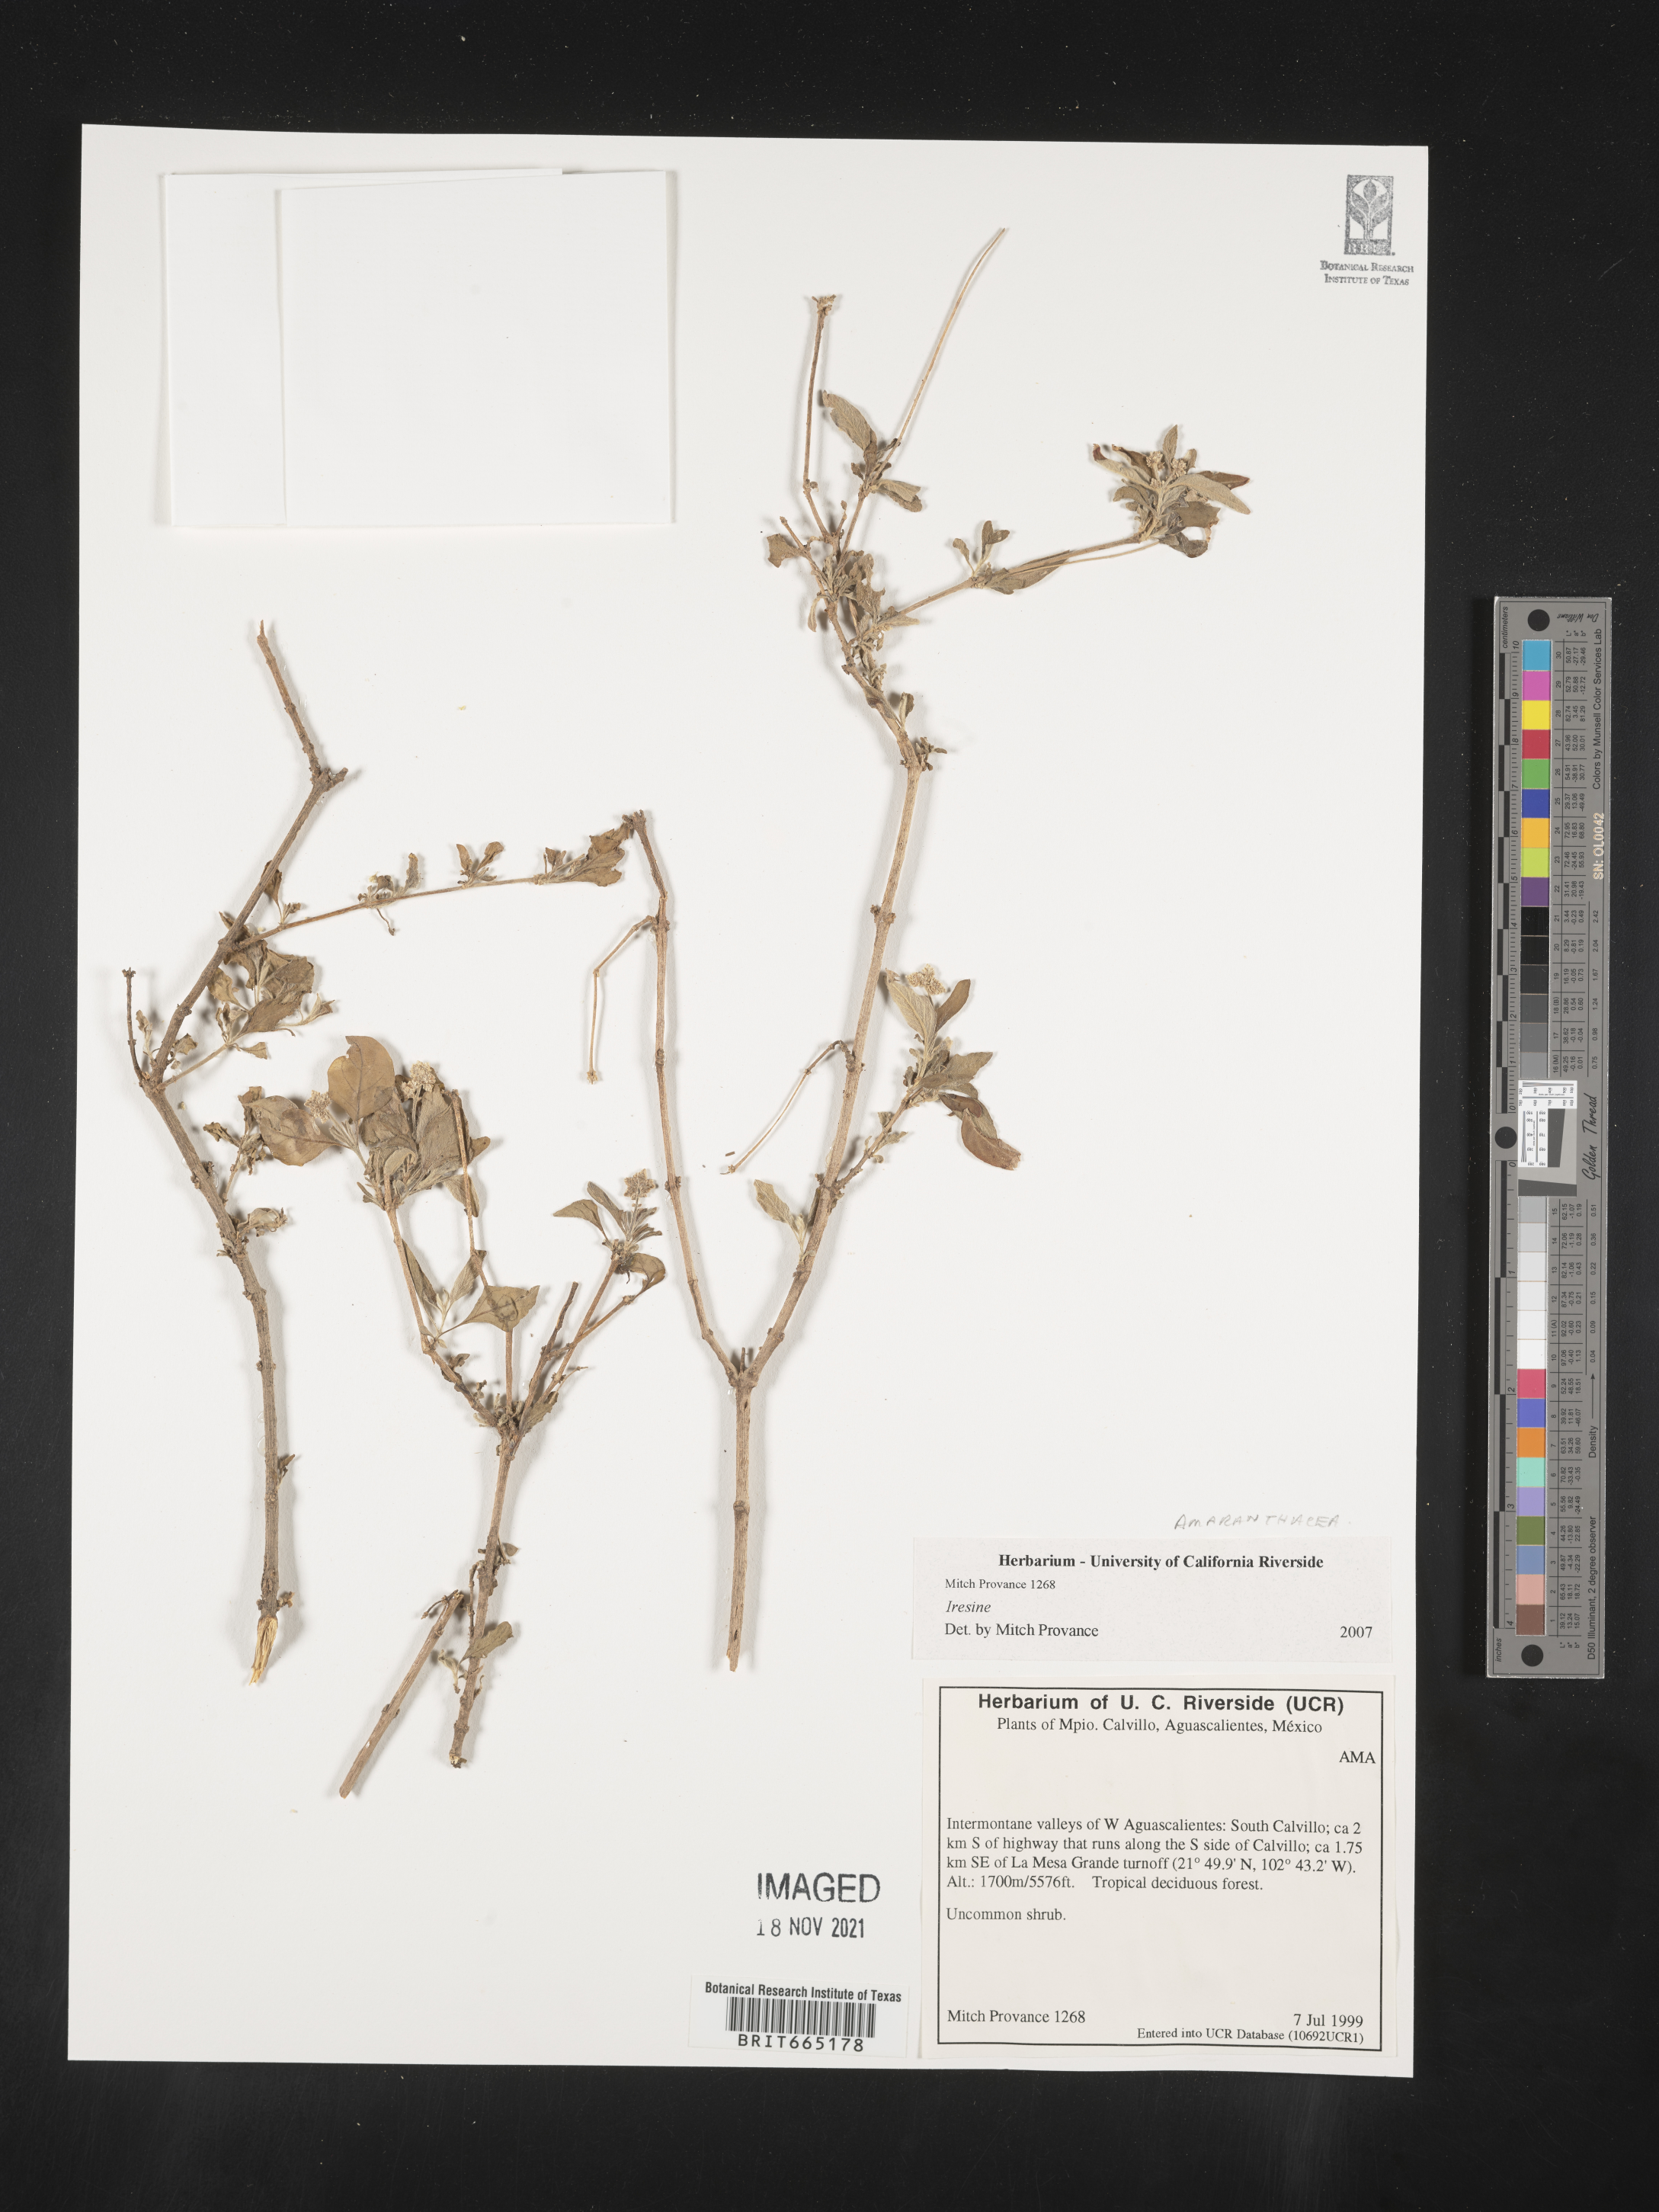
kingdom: Plantae
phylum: Tracheophyta
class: Magnoliopsida
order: Caryophyllales
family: Amaranthaceae
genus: Iresine
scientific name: Iresine
